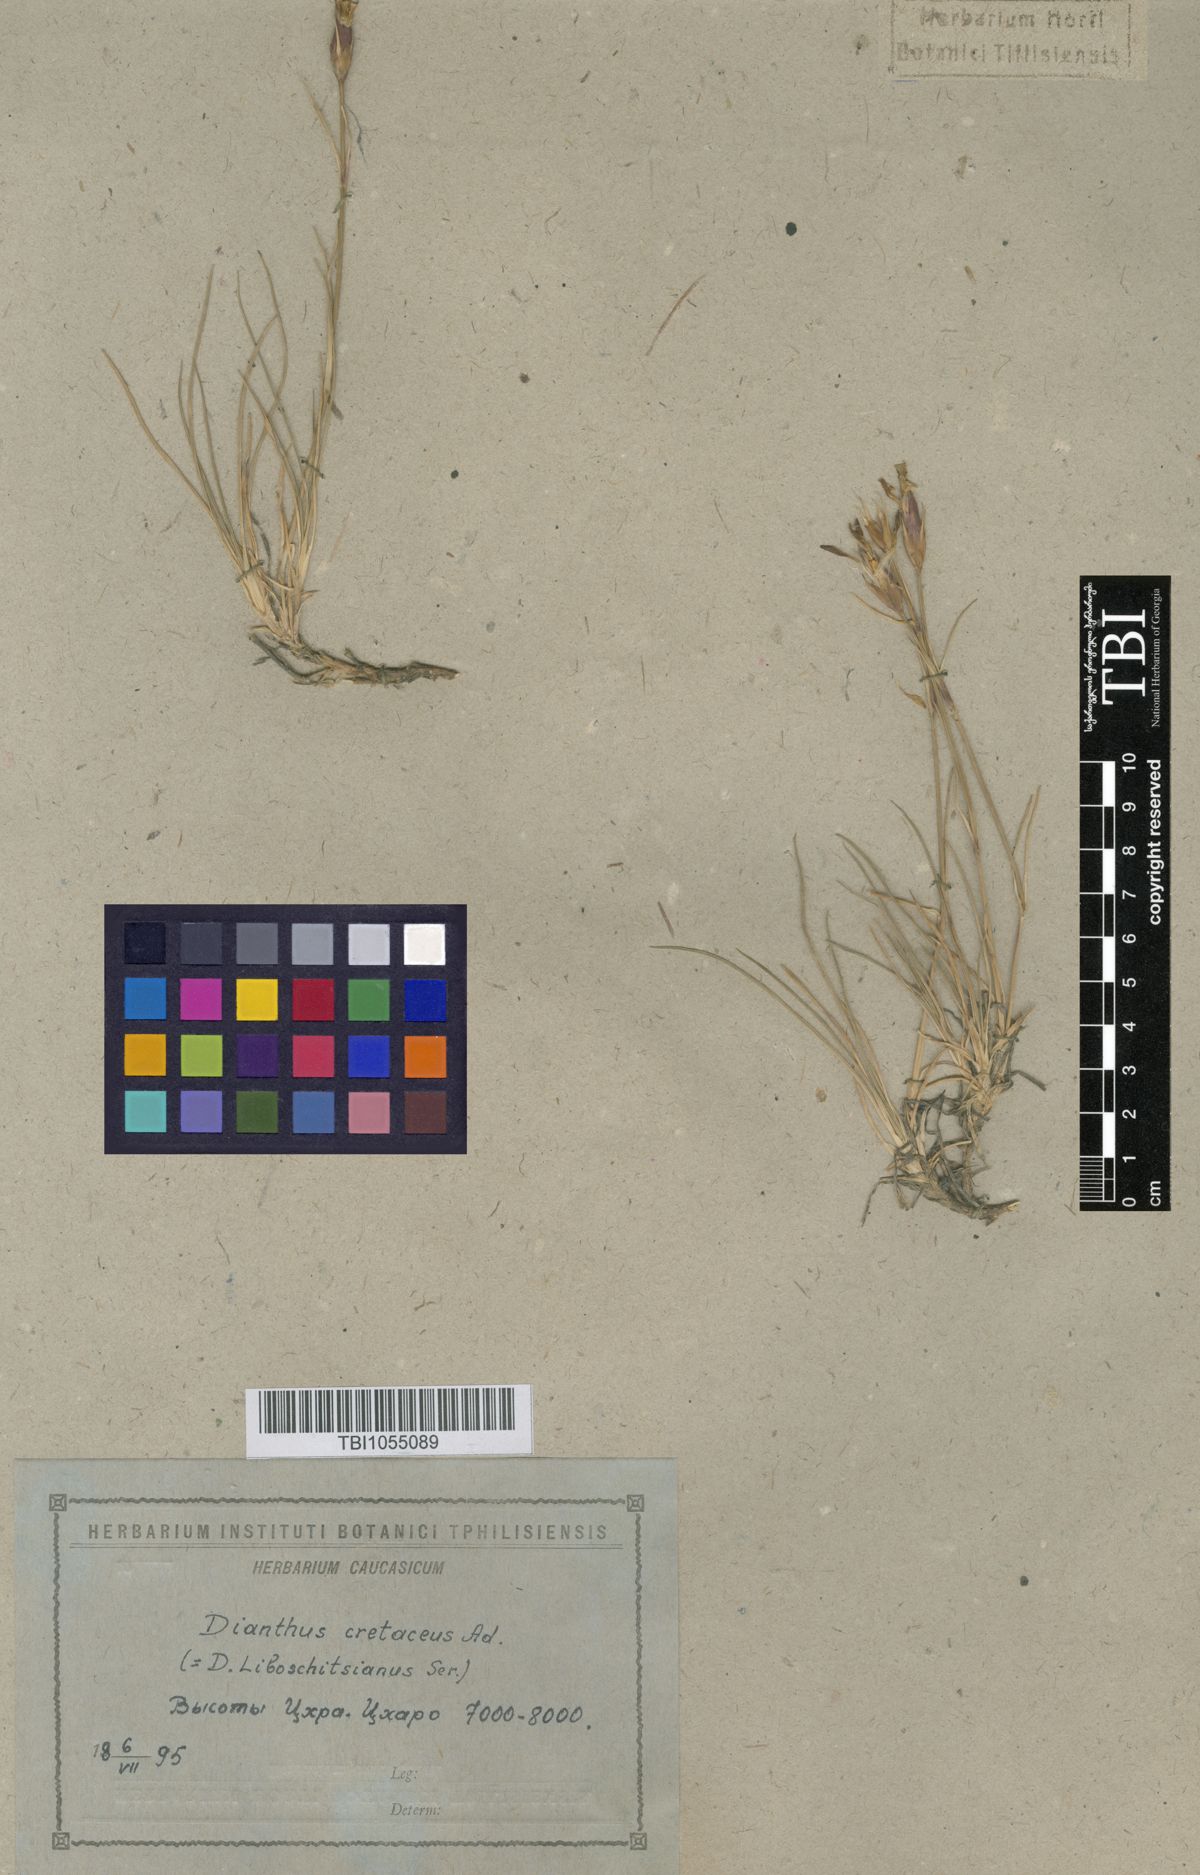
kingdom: Plantae
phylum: Tracheophyta
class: Magnoliopsida
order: Caryophyllales
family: Caryophyllaceae
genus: Dianthus
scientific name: Dianthus cretaceus
